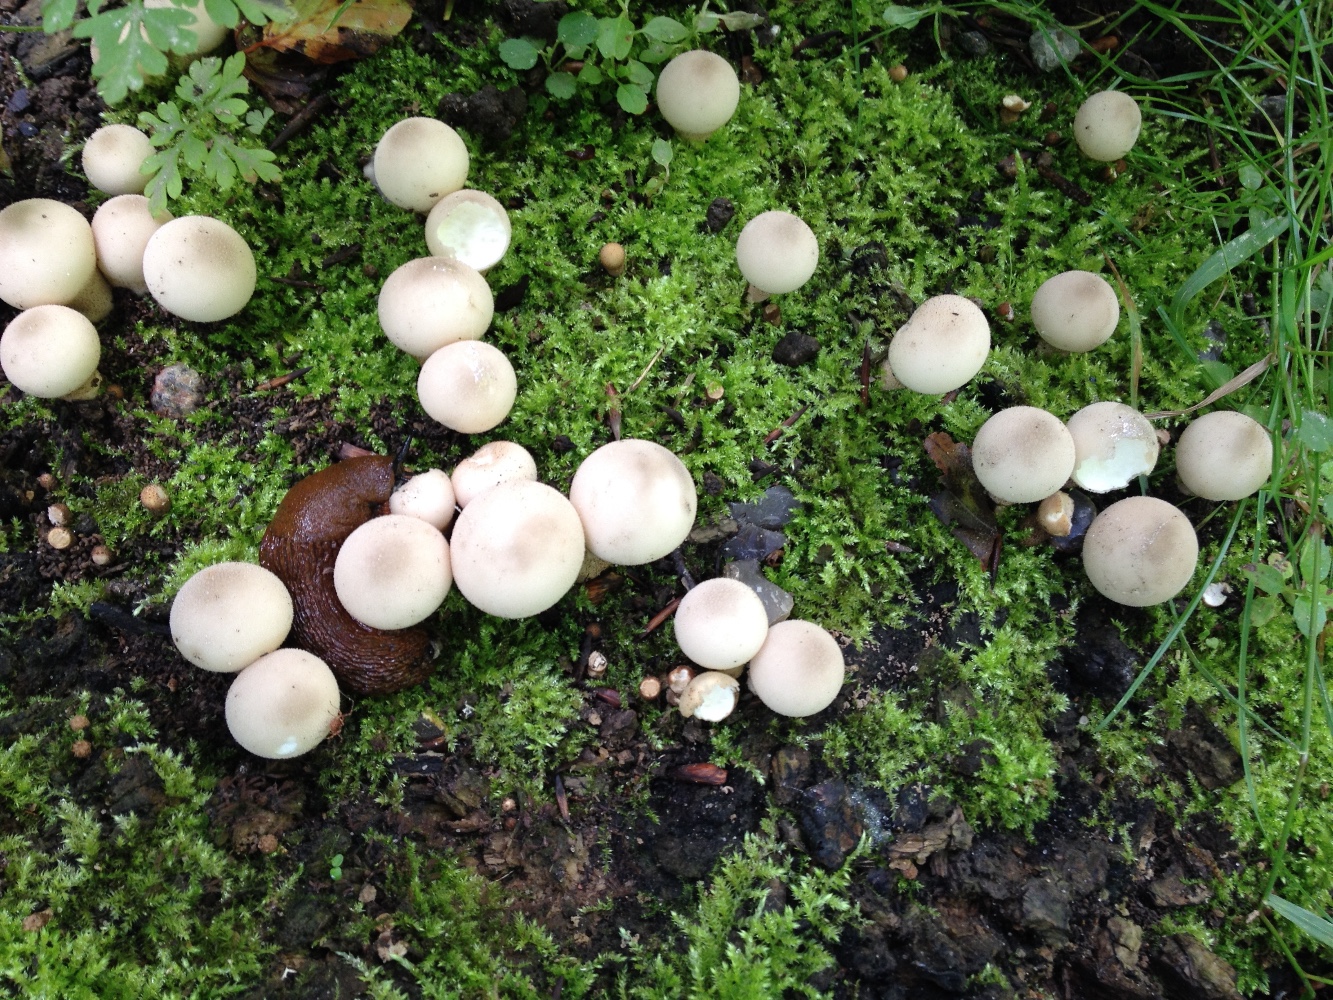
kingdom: Fungi
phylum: Basidiomycota
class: Agaricomycetes
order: Agaricales
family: Lycoperdaceae
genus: Apioperdon
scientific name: Apioperdon pyriforme
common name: pære-støvbold
